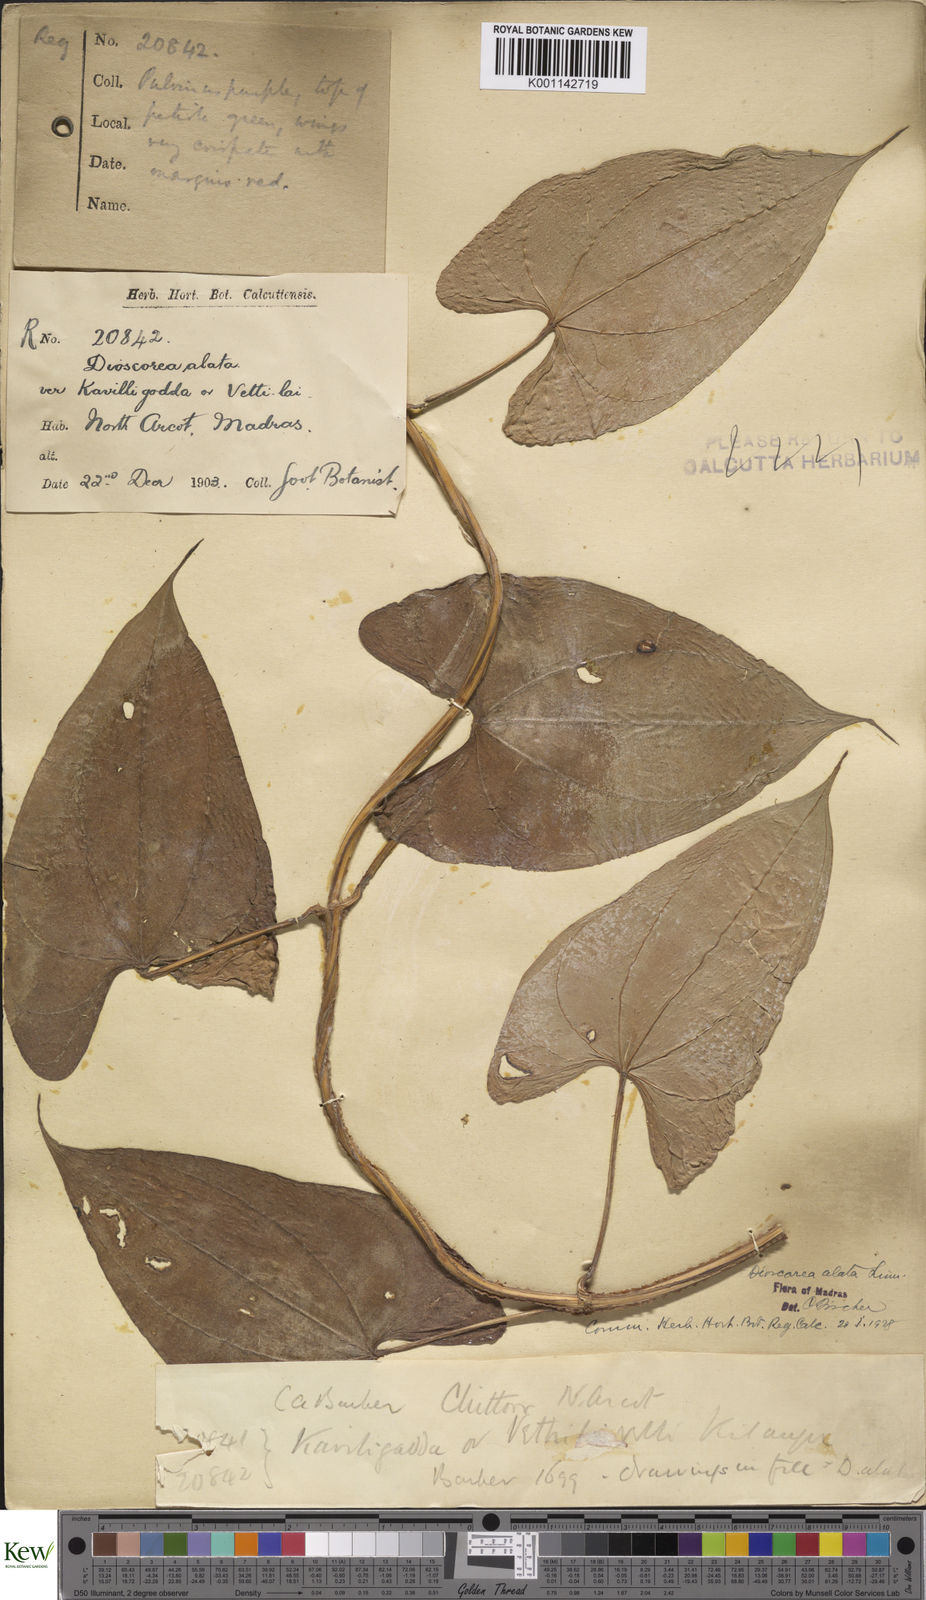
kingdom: Plantae
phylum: Tracheophyta
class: Liliopsida
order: Dioscoreales
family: Dioscoreaceae
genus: Dioscorea
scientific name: Dioscorea alata
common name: Water yam
